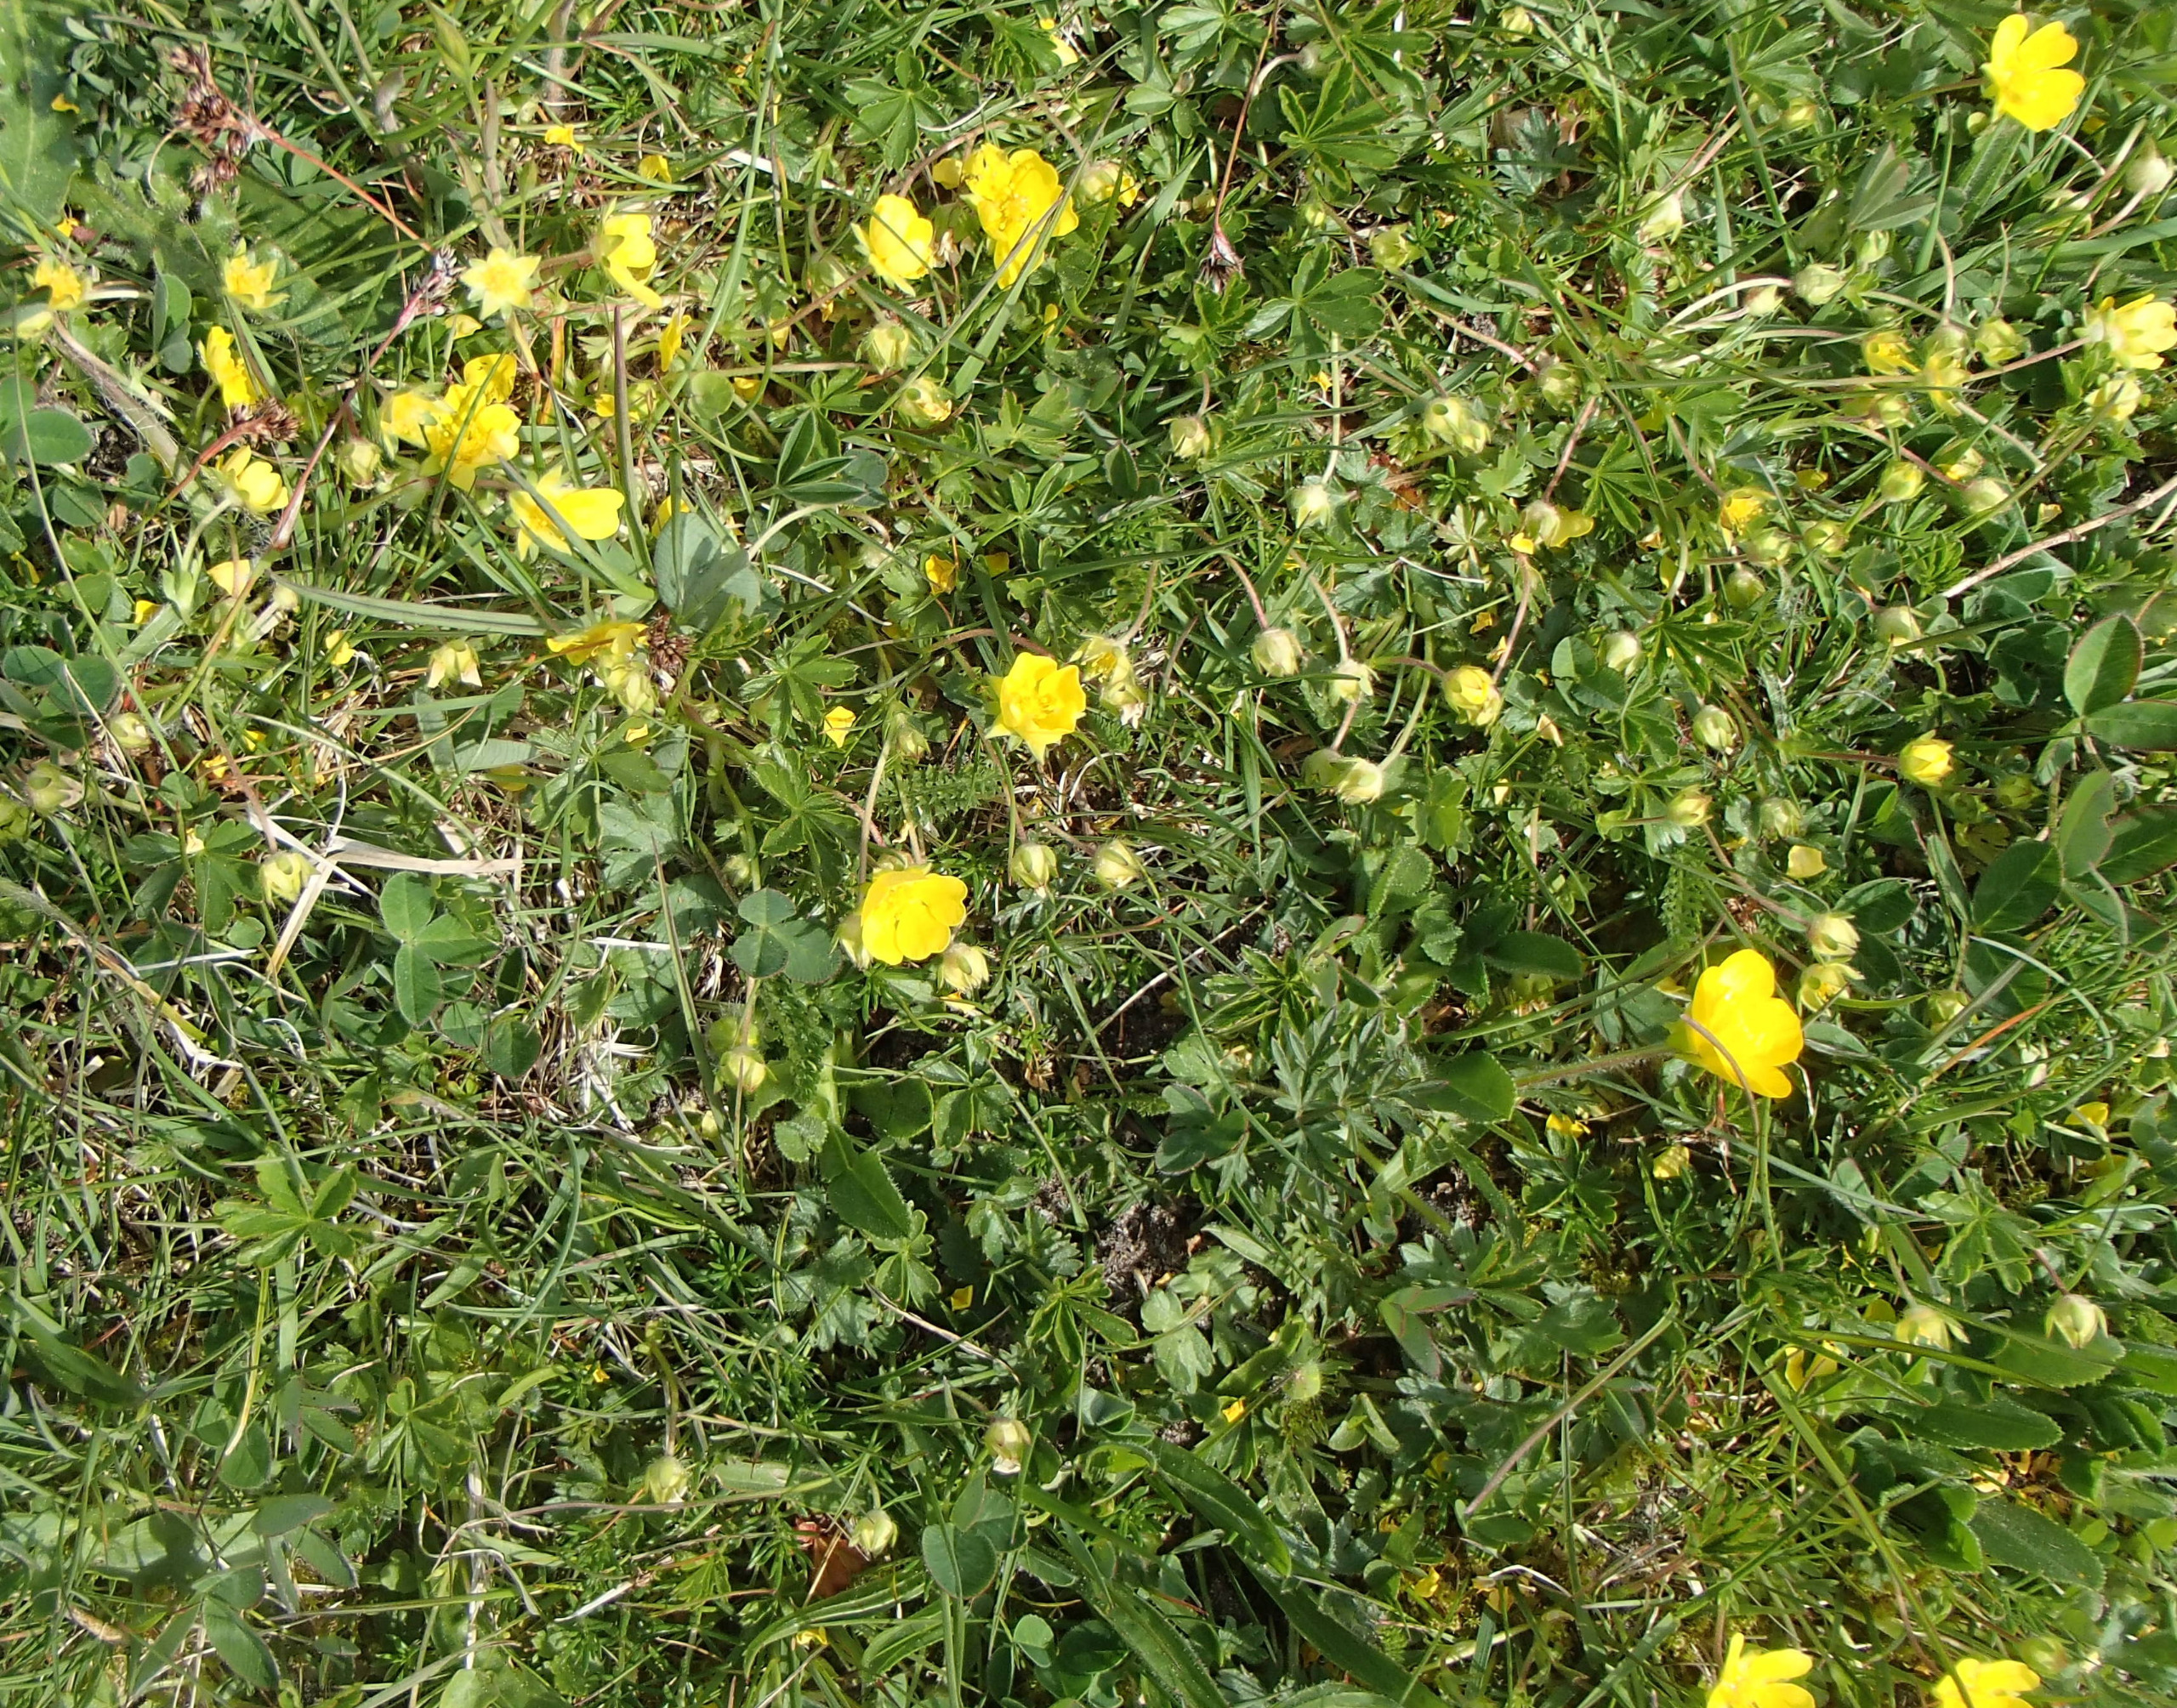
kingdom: Plantae
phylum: Tracheophyta
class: Magnoliopsida
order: Rosales
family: Rosaceae
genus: Potentilla
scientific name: Potentilla verna
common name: Vår-potentil
